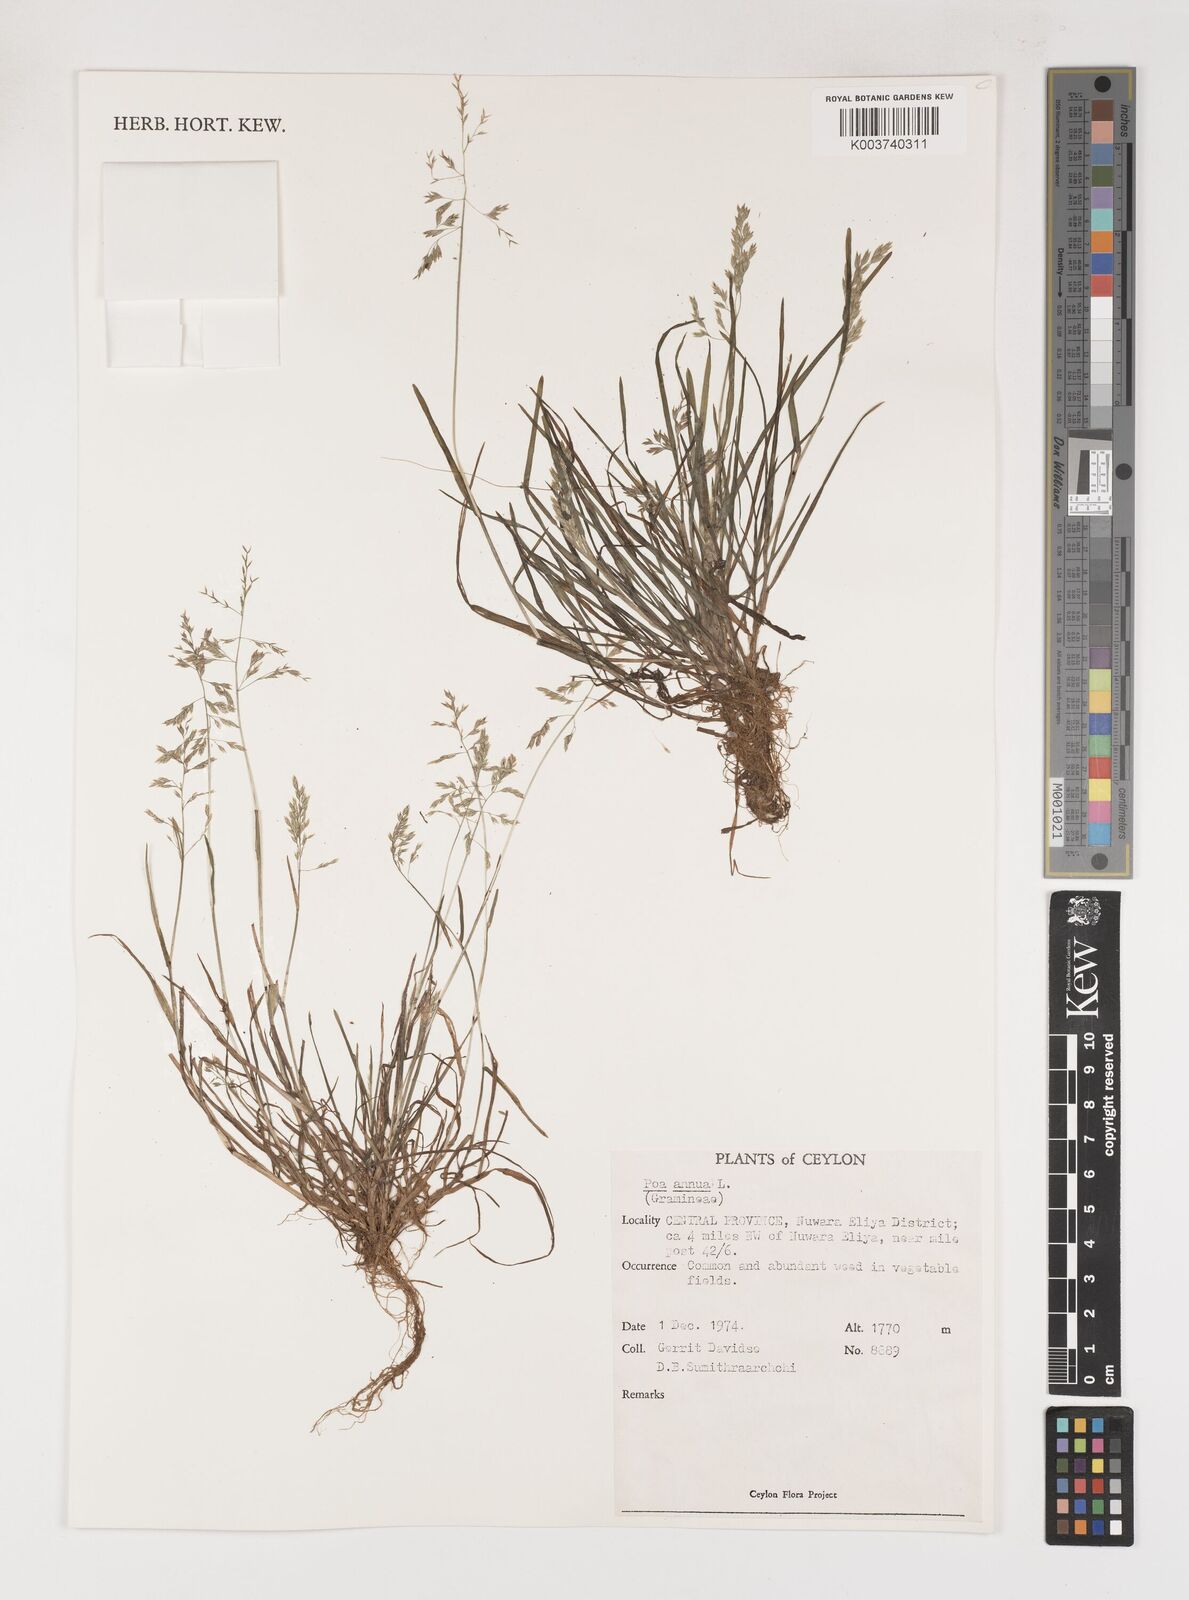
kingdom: Plantae
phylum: Tracheophyta
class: Liliopsida
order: Poales
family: Poaceae
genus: Poa
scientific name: Poa annua
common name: Annual bluegrass
